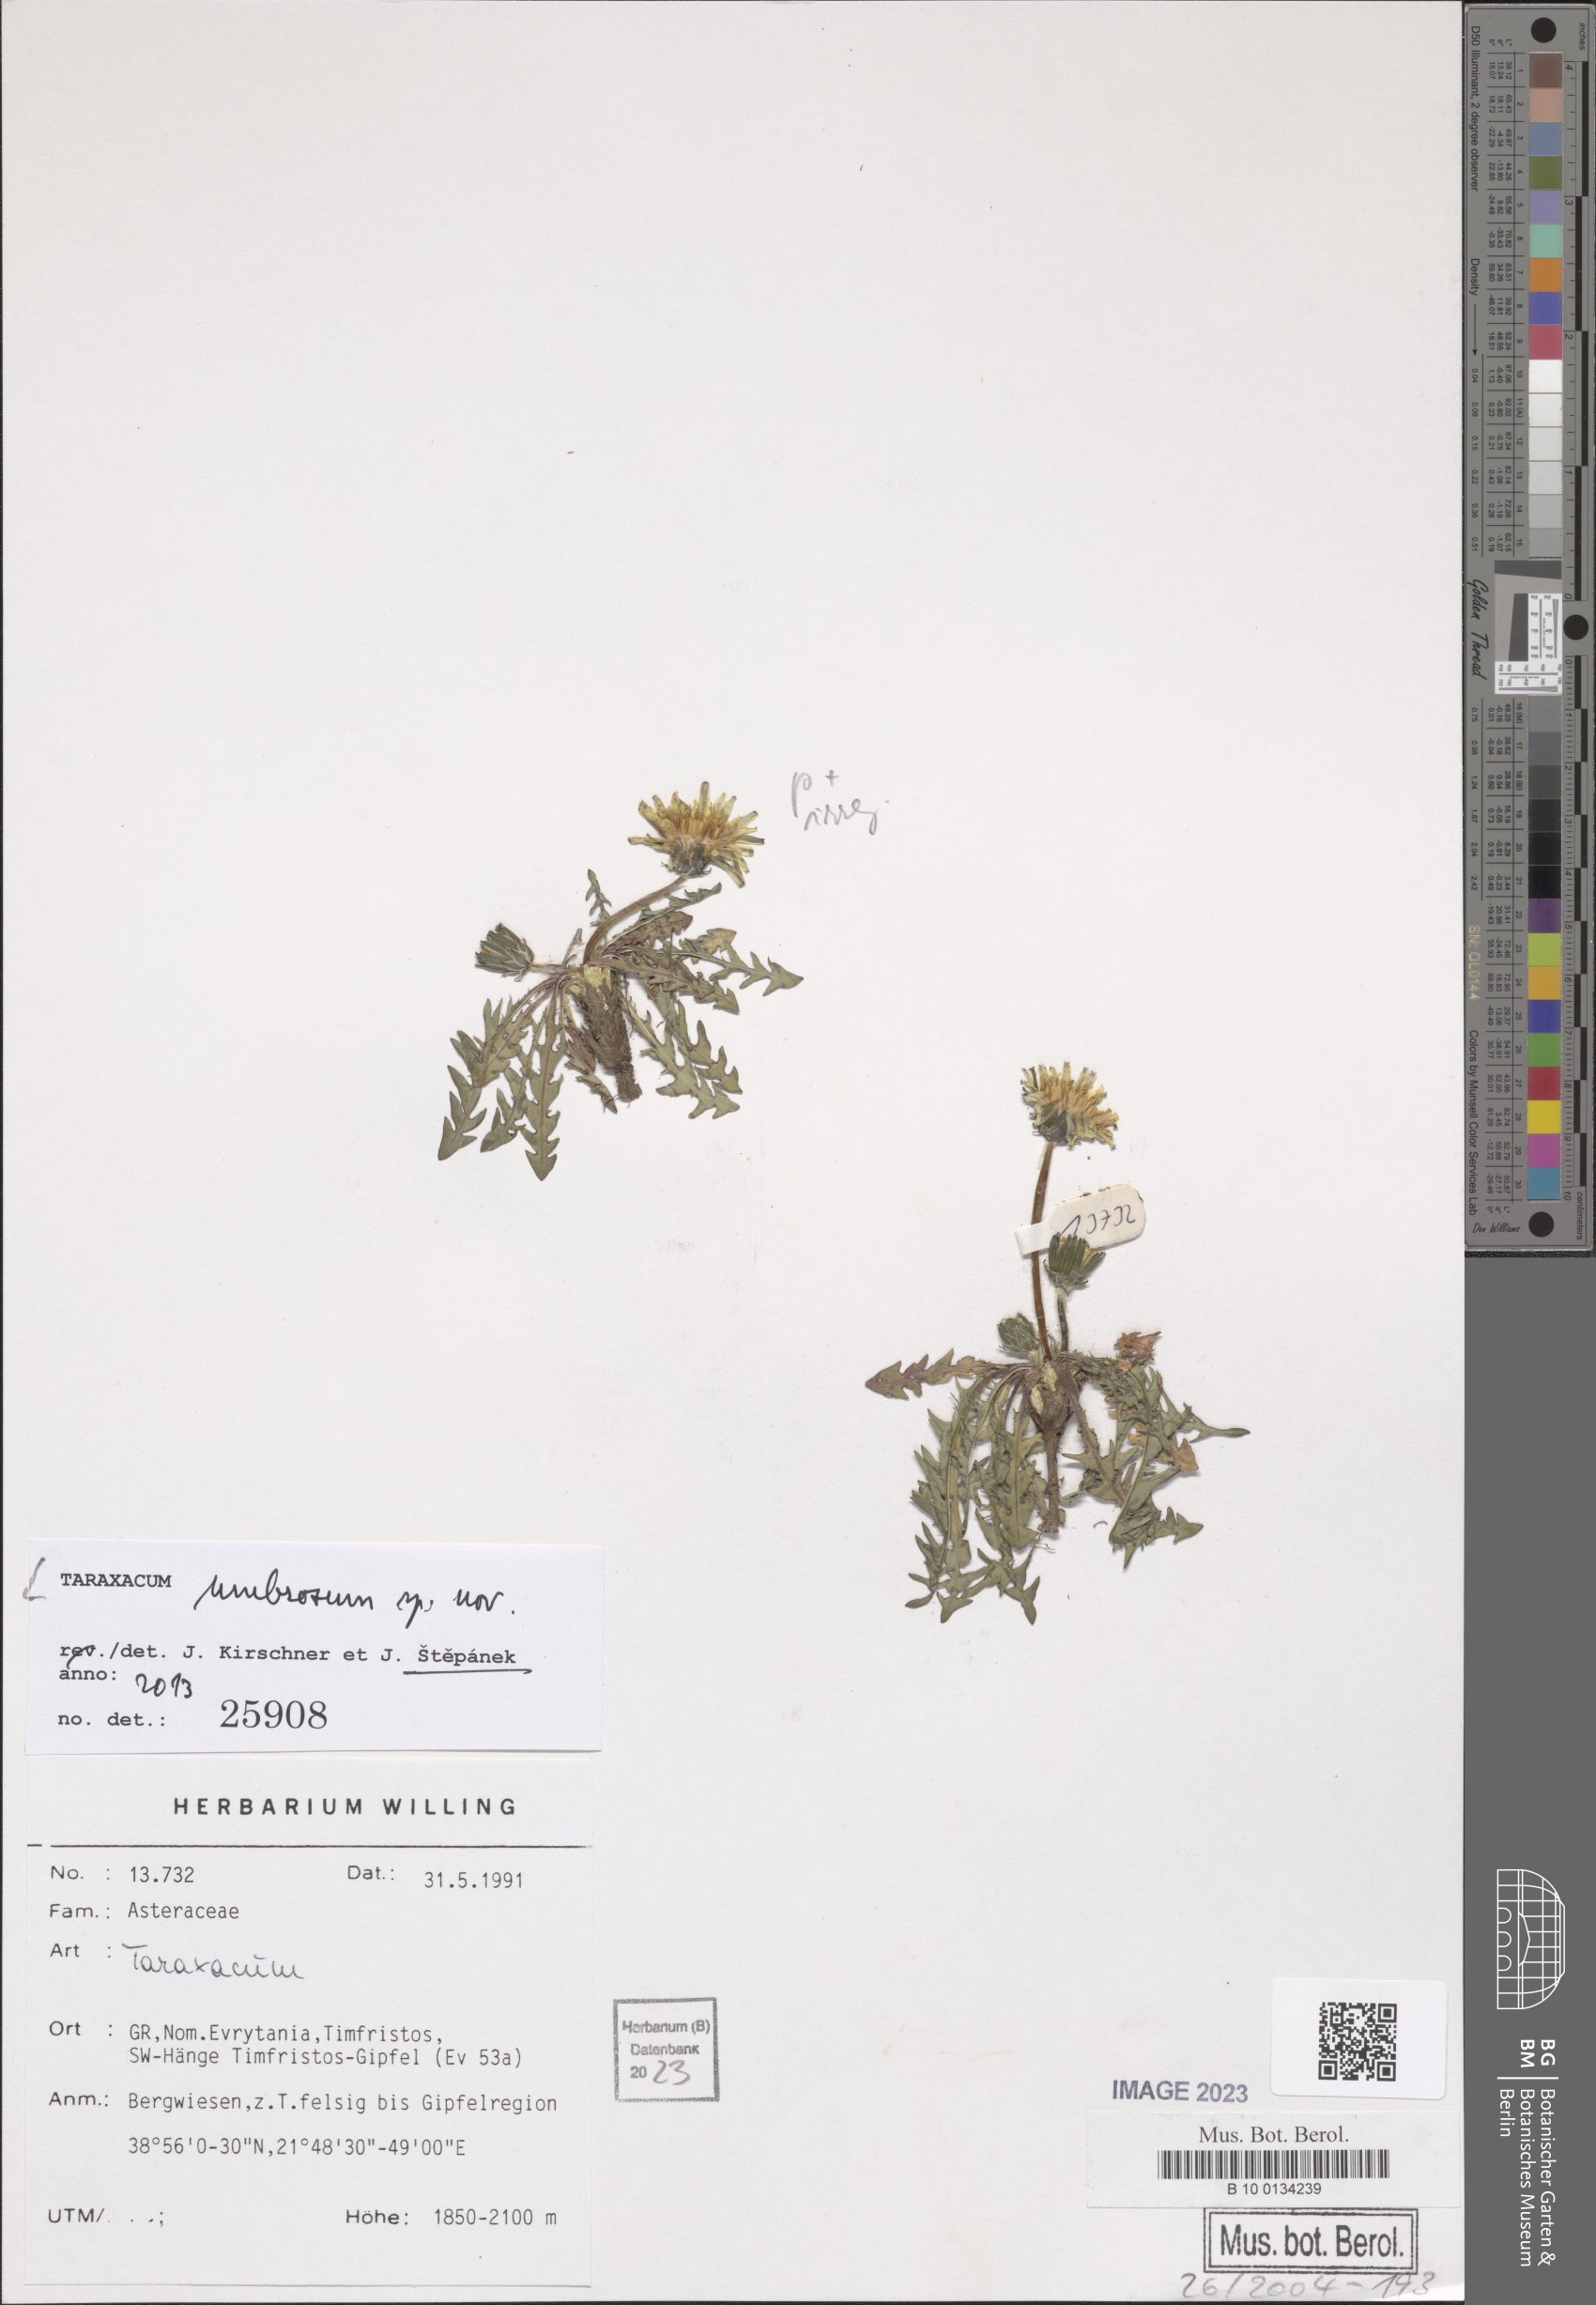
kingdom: Plantae
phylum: Tracheophyta
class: Magnoliopsida
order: Asterales
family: Asteraceae
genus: Taraxacum
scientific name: Taraxacum umbrosum
